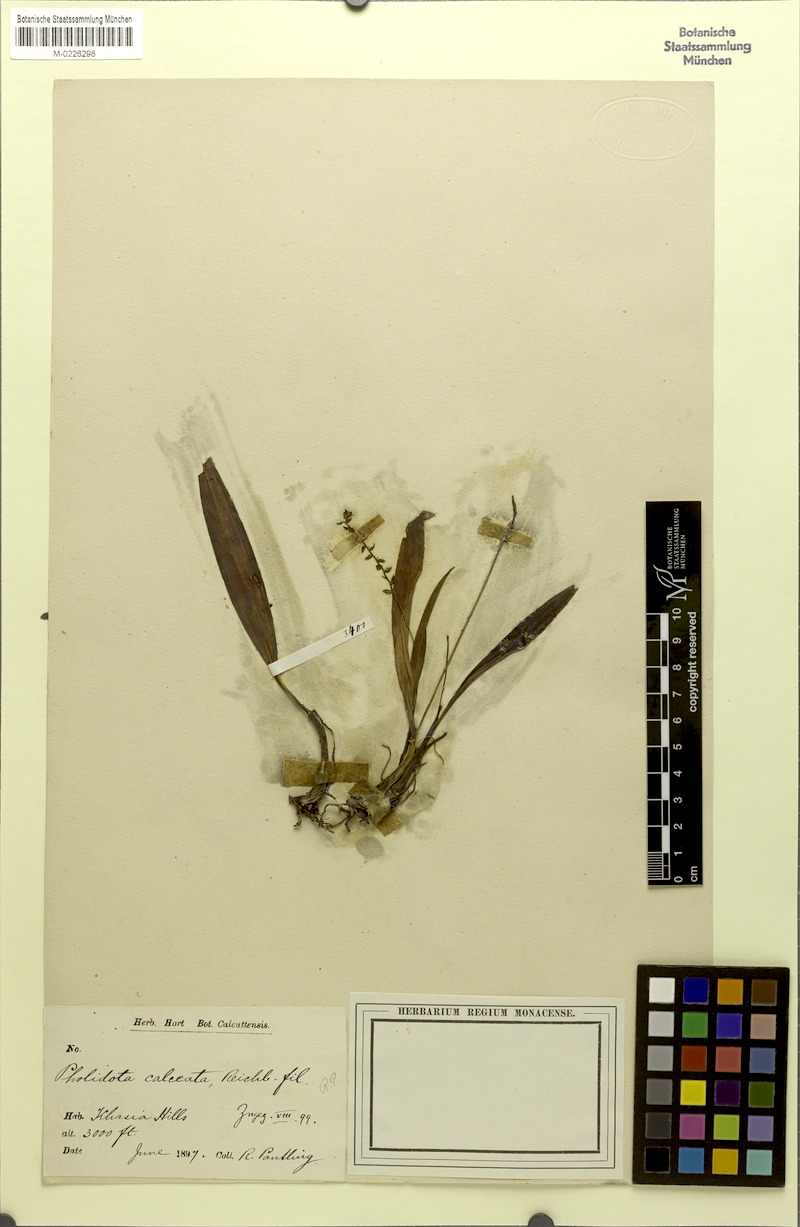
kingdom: Plantae
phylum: Tracheophyta
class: Liliopsida
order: Asparagales
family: Orchidaceae
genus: Pholidota
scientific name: Pholidota imbricata
